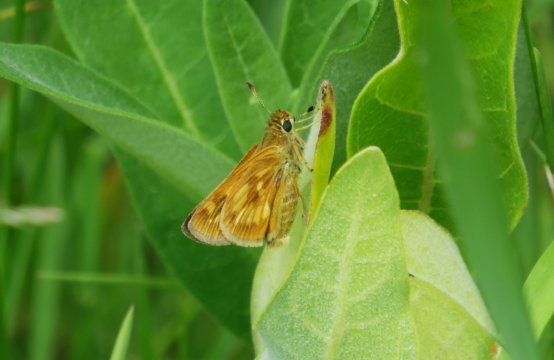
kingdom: Animalia
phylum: Arthropoda
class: Insecta
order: Lepidoptera
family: Hesperiidae
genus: Lon
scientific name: Lon hobomok
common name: Hobomok Skipper
